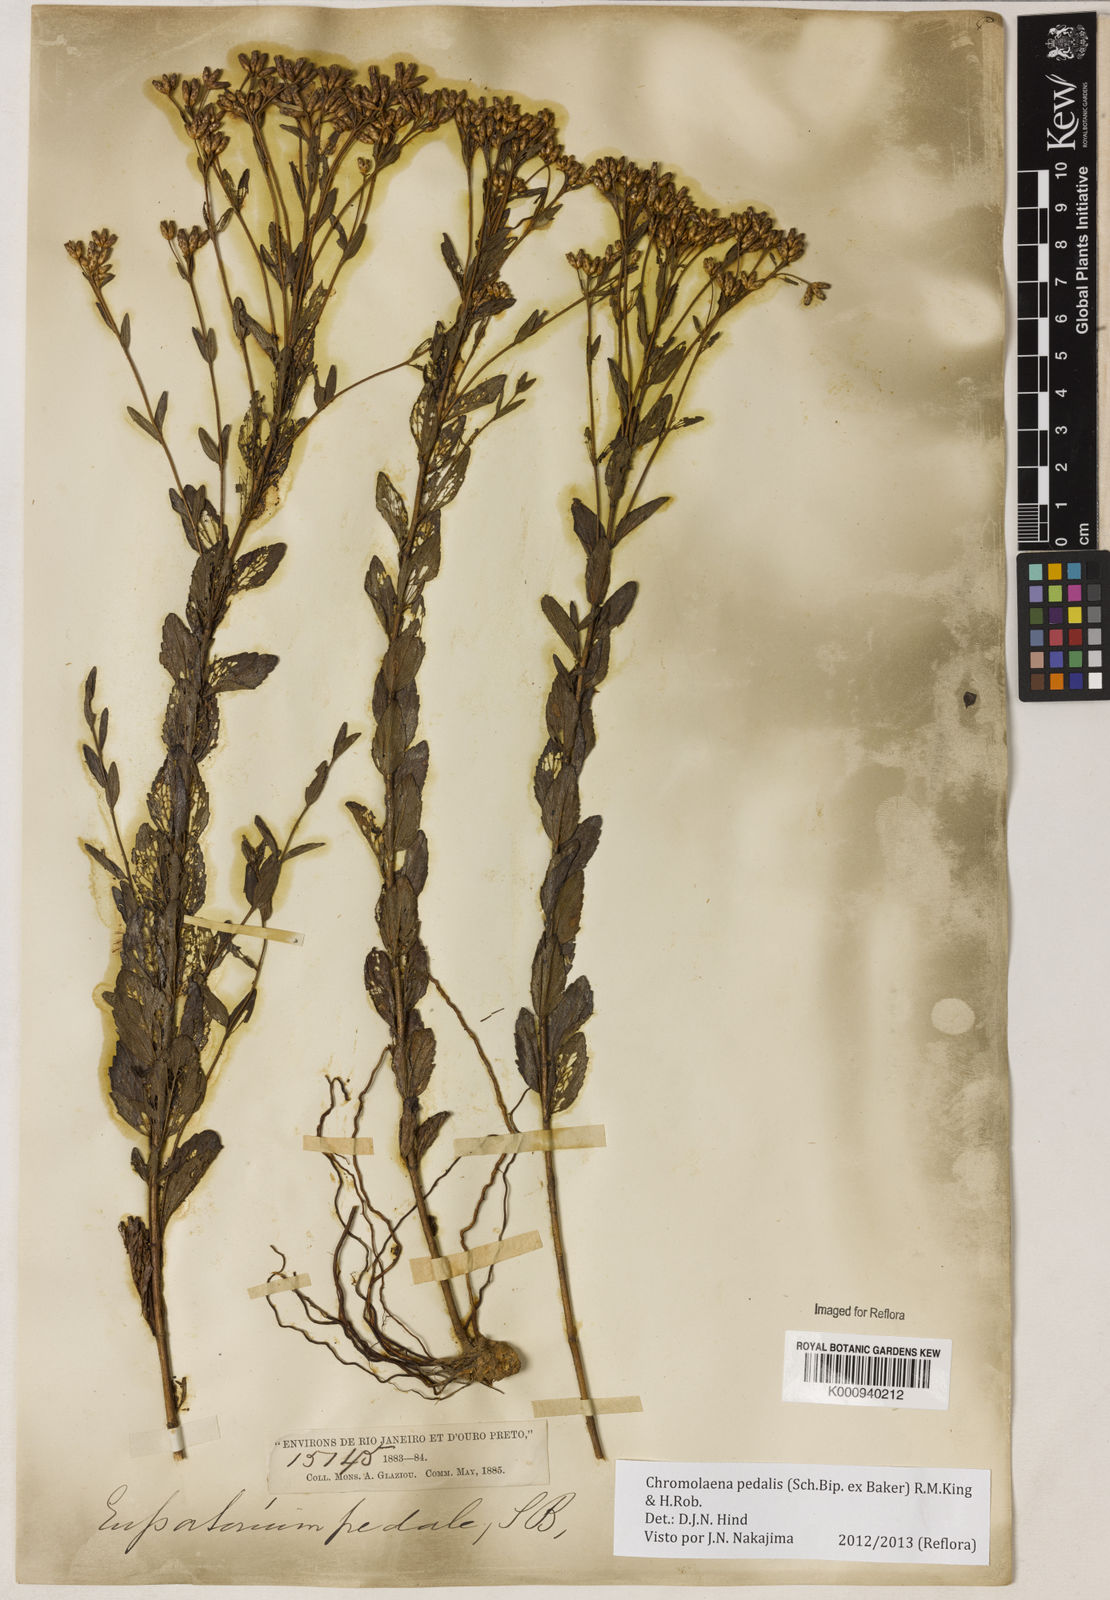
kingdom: Plantae
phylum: Tracheophyta
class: Magnoliopsida
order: Asterales
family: Asteraceae
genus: Chromolaena
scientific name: Chromolaena pedalis
